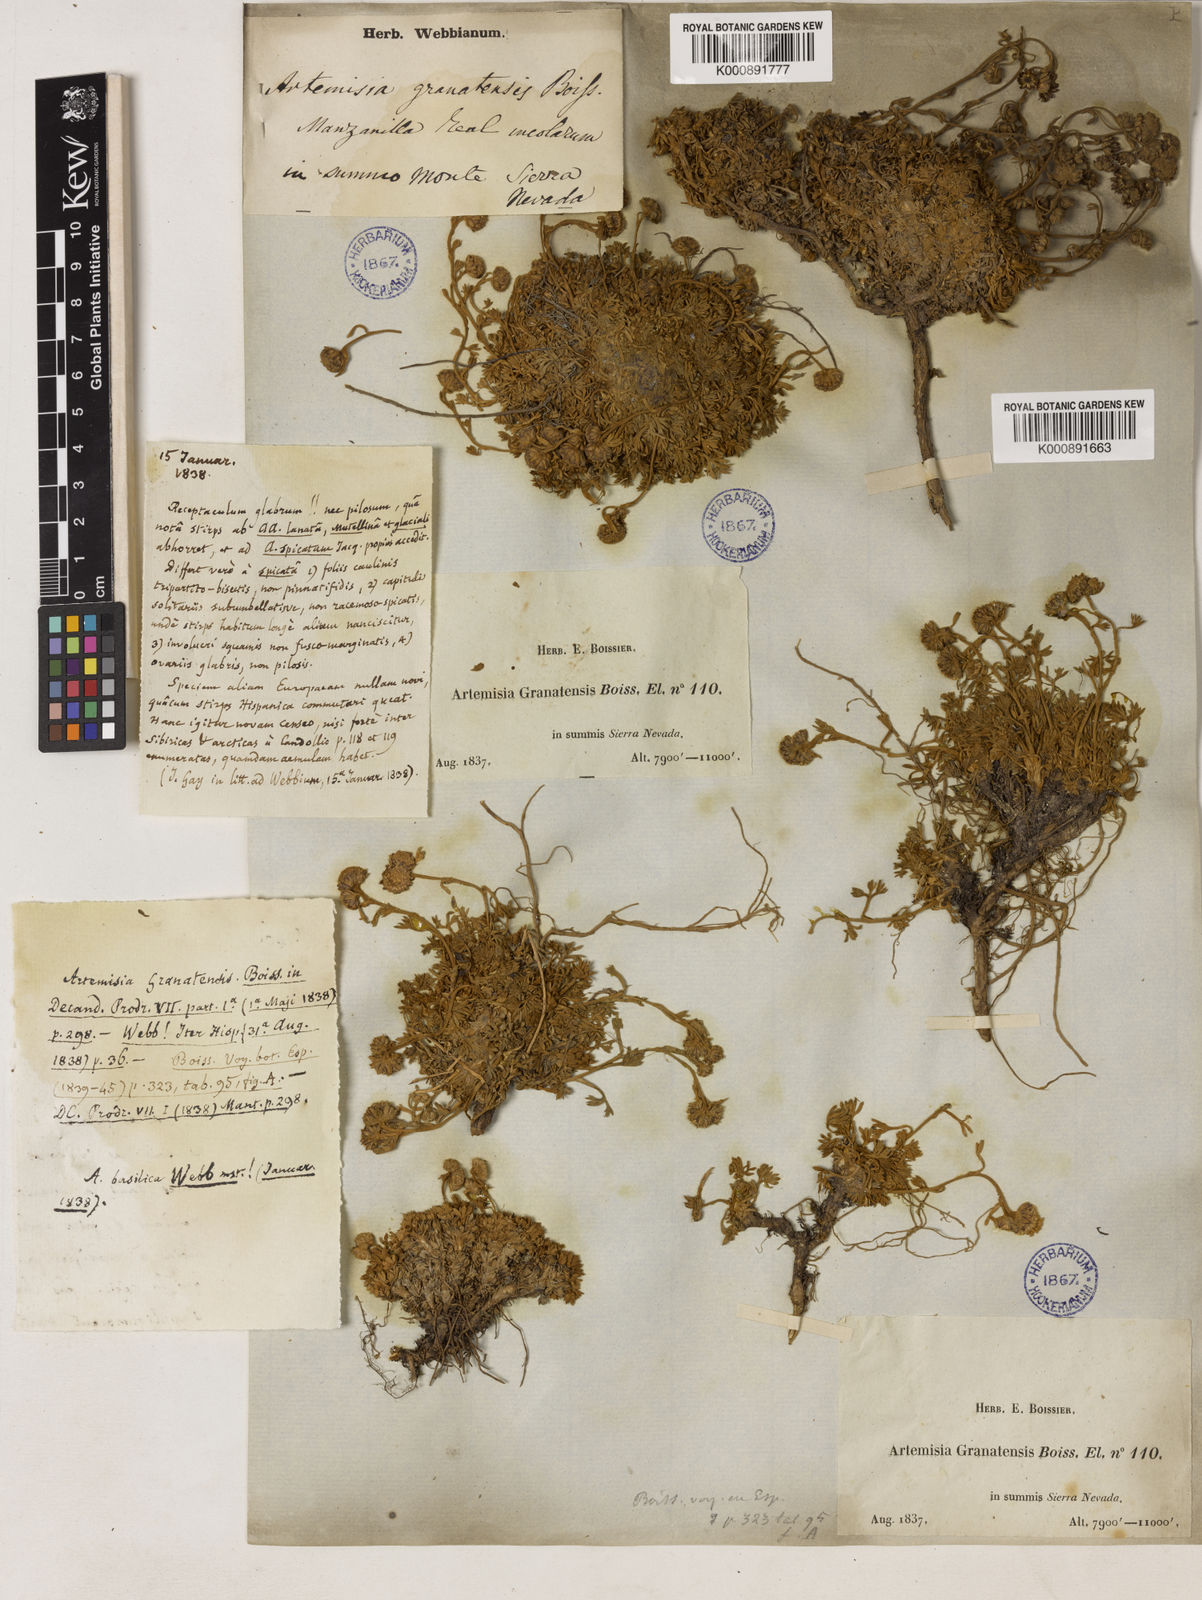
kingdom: Plantae
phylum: Tracheophyta
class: Magnoliopsida
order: Asterales
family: Asteraceae
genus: Artemisia
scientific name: Artemisia granatensis
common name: Royal chamomile
